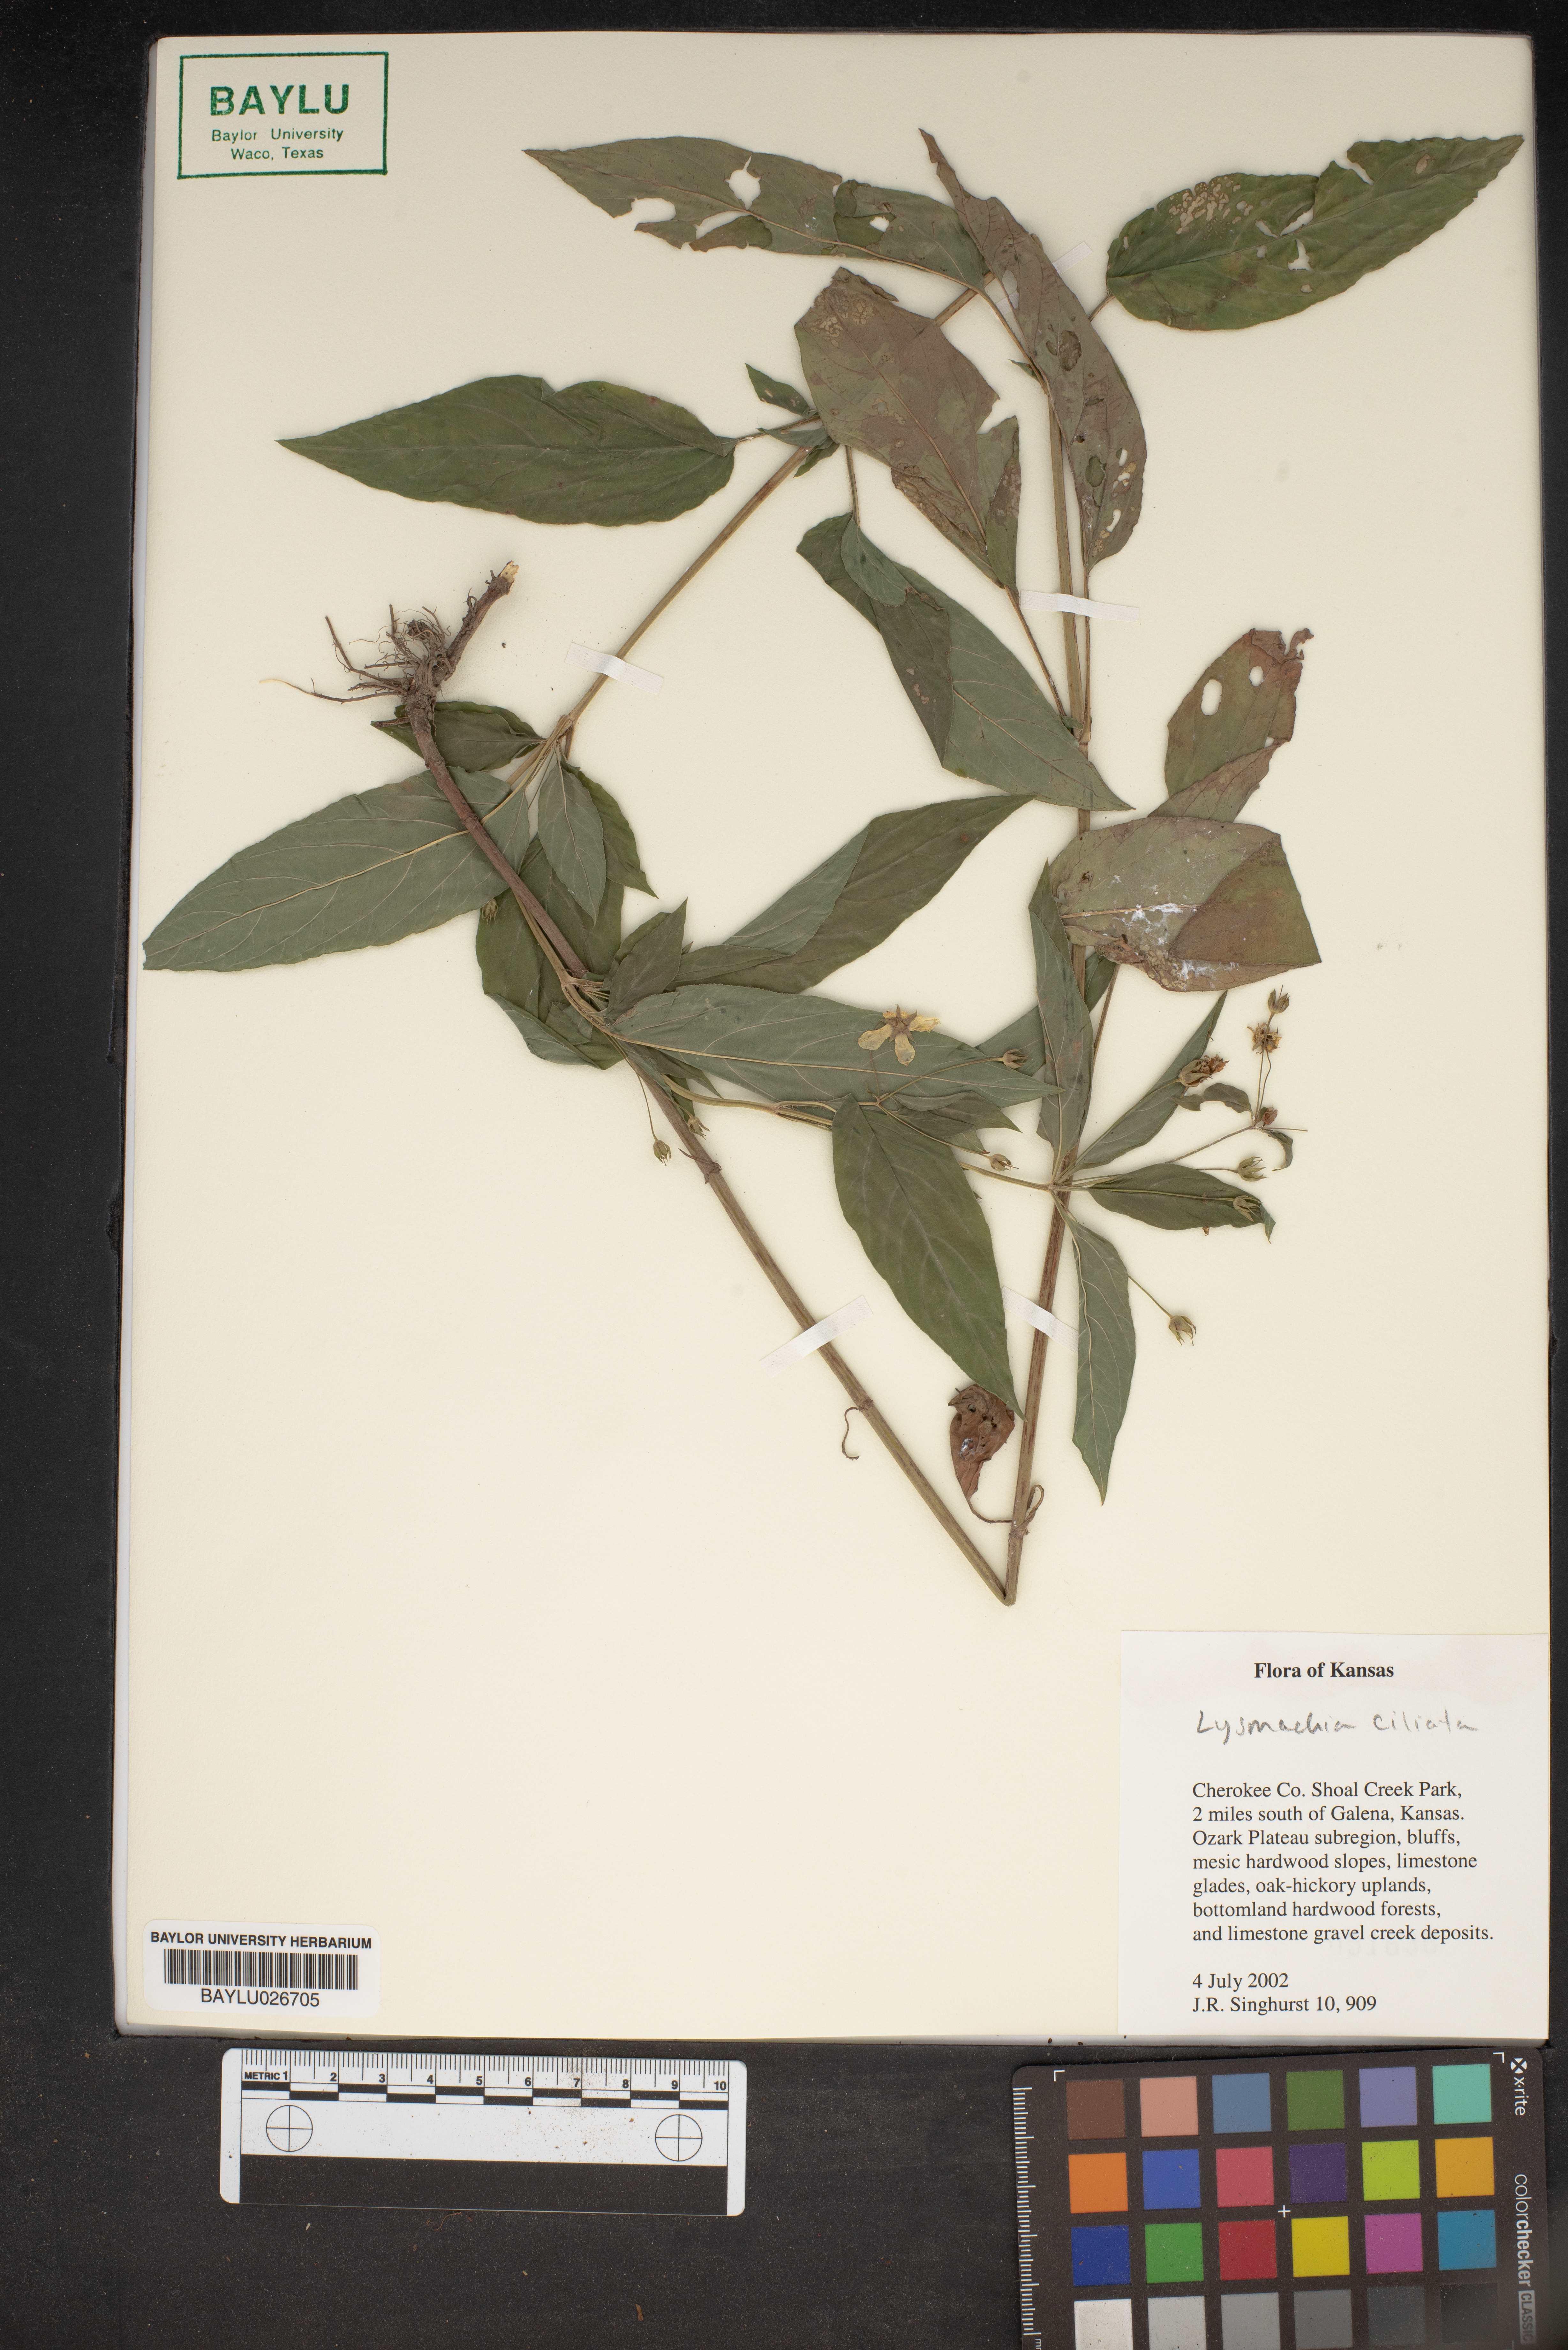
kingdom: Plantae
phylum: Tracheophyta
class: Magnoliopsida
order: Ericales
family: Primulaceae
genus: Lysimachia
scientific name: Lysimachia ciliata
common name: Fringed loosestrife
